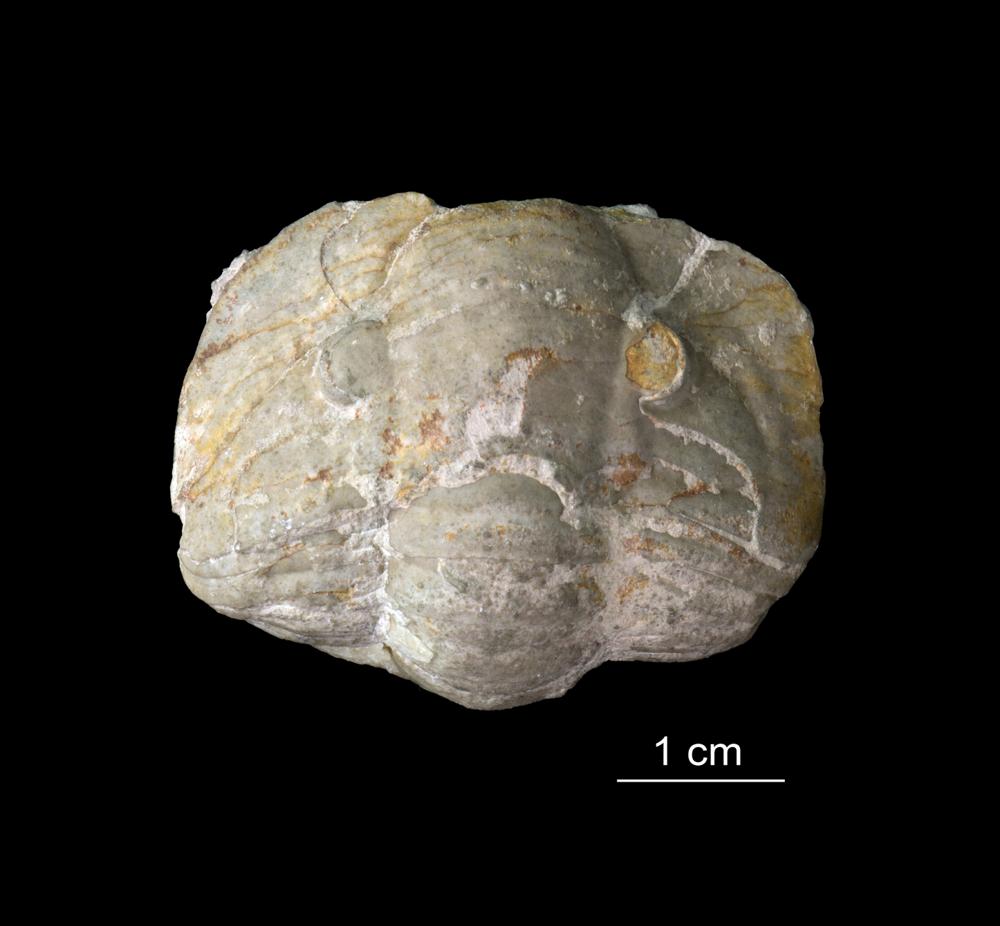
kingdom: Animalia
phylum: Arthropoda
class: Trilobita
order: Asaphida
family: Asaphidae
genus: Niobe
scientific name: Niobe Asaphus frontalis
